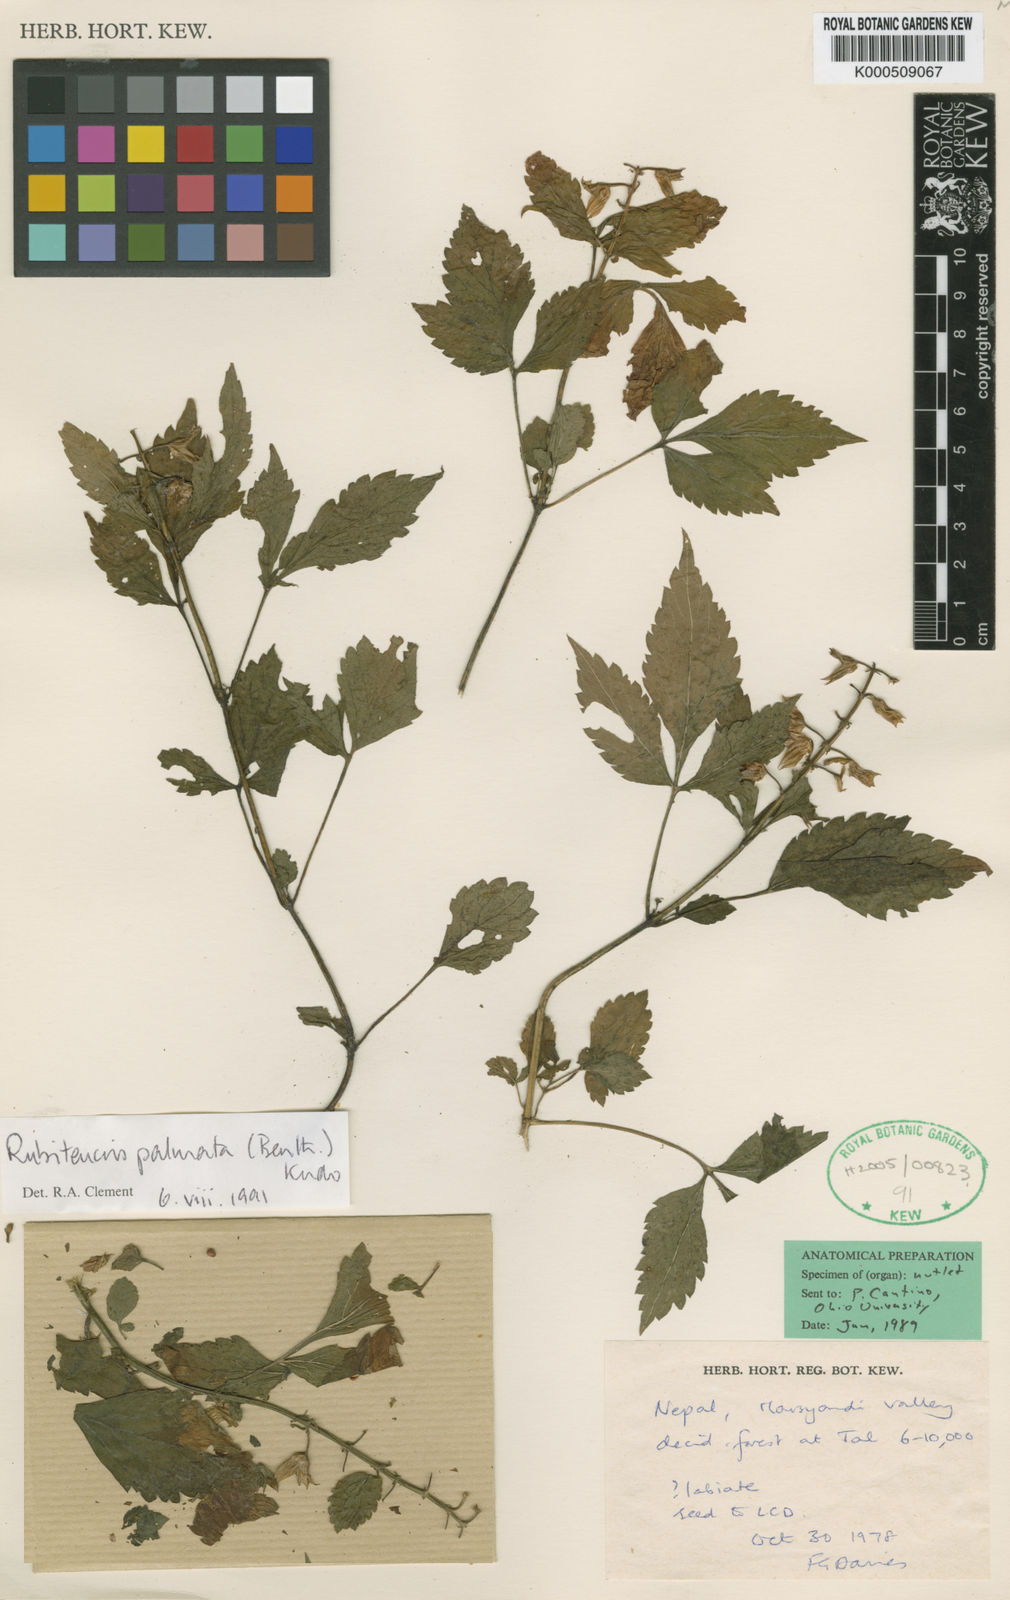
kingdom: Plantae
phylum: Tracheophyta
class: Magnoliopsida
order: Lamiales
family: Lamiaceae
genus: Rubiteucris
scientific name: Rubiteucris palmata
